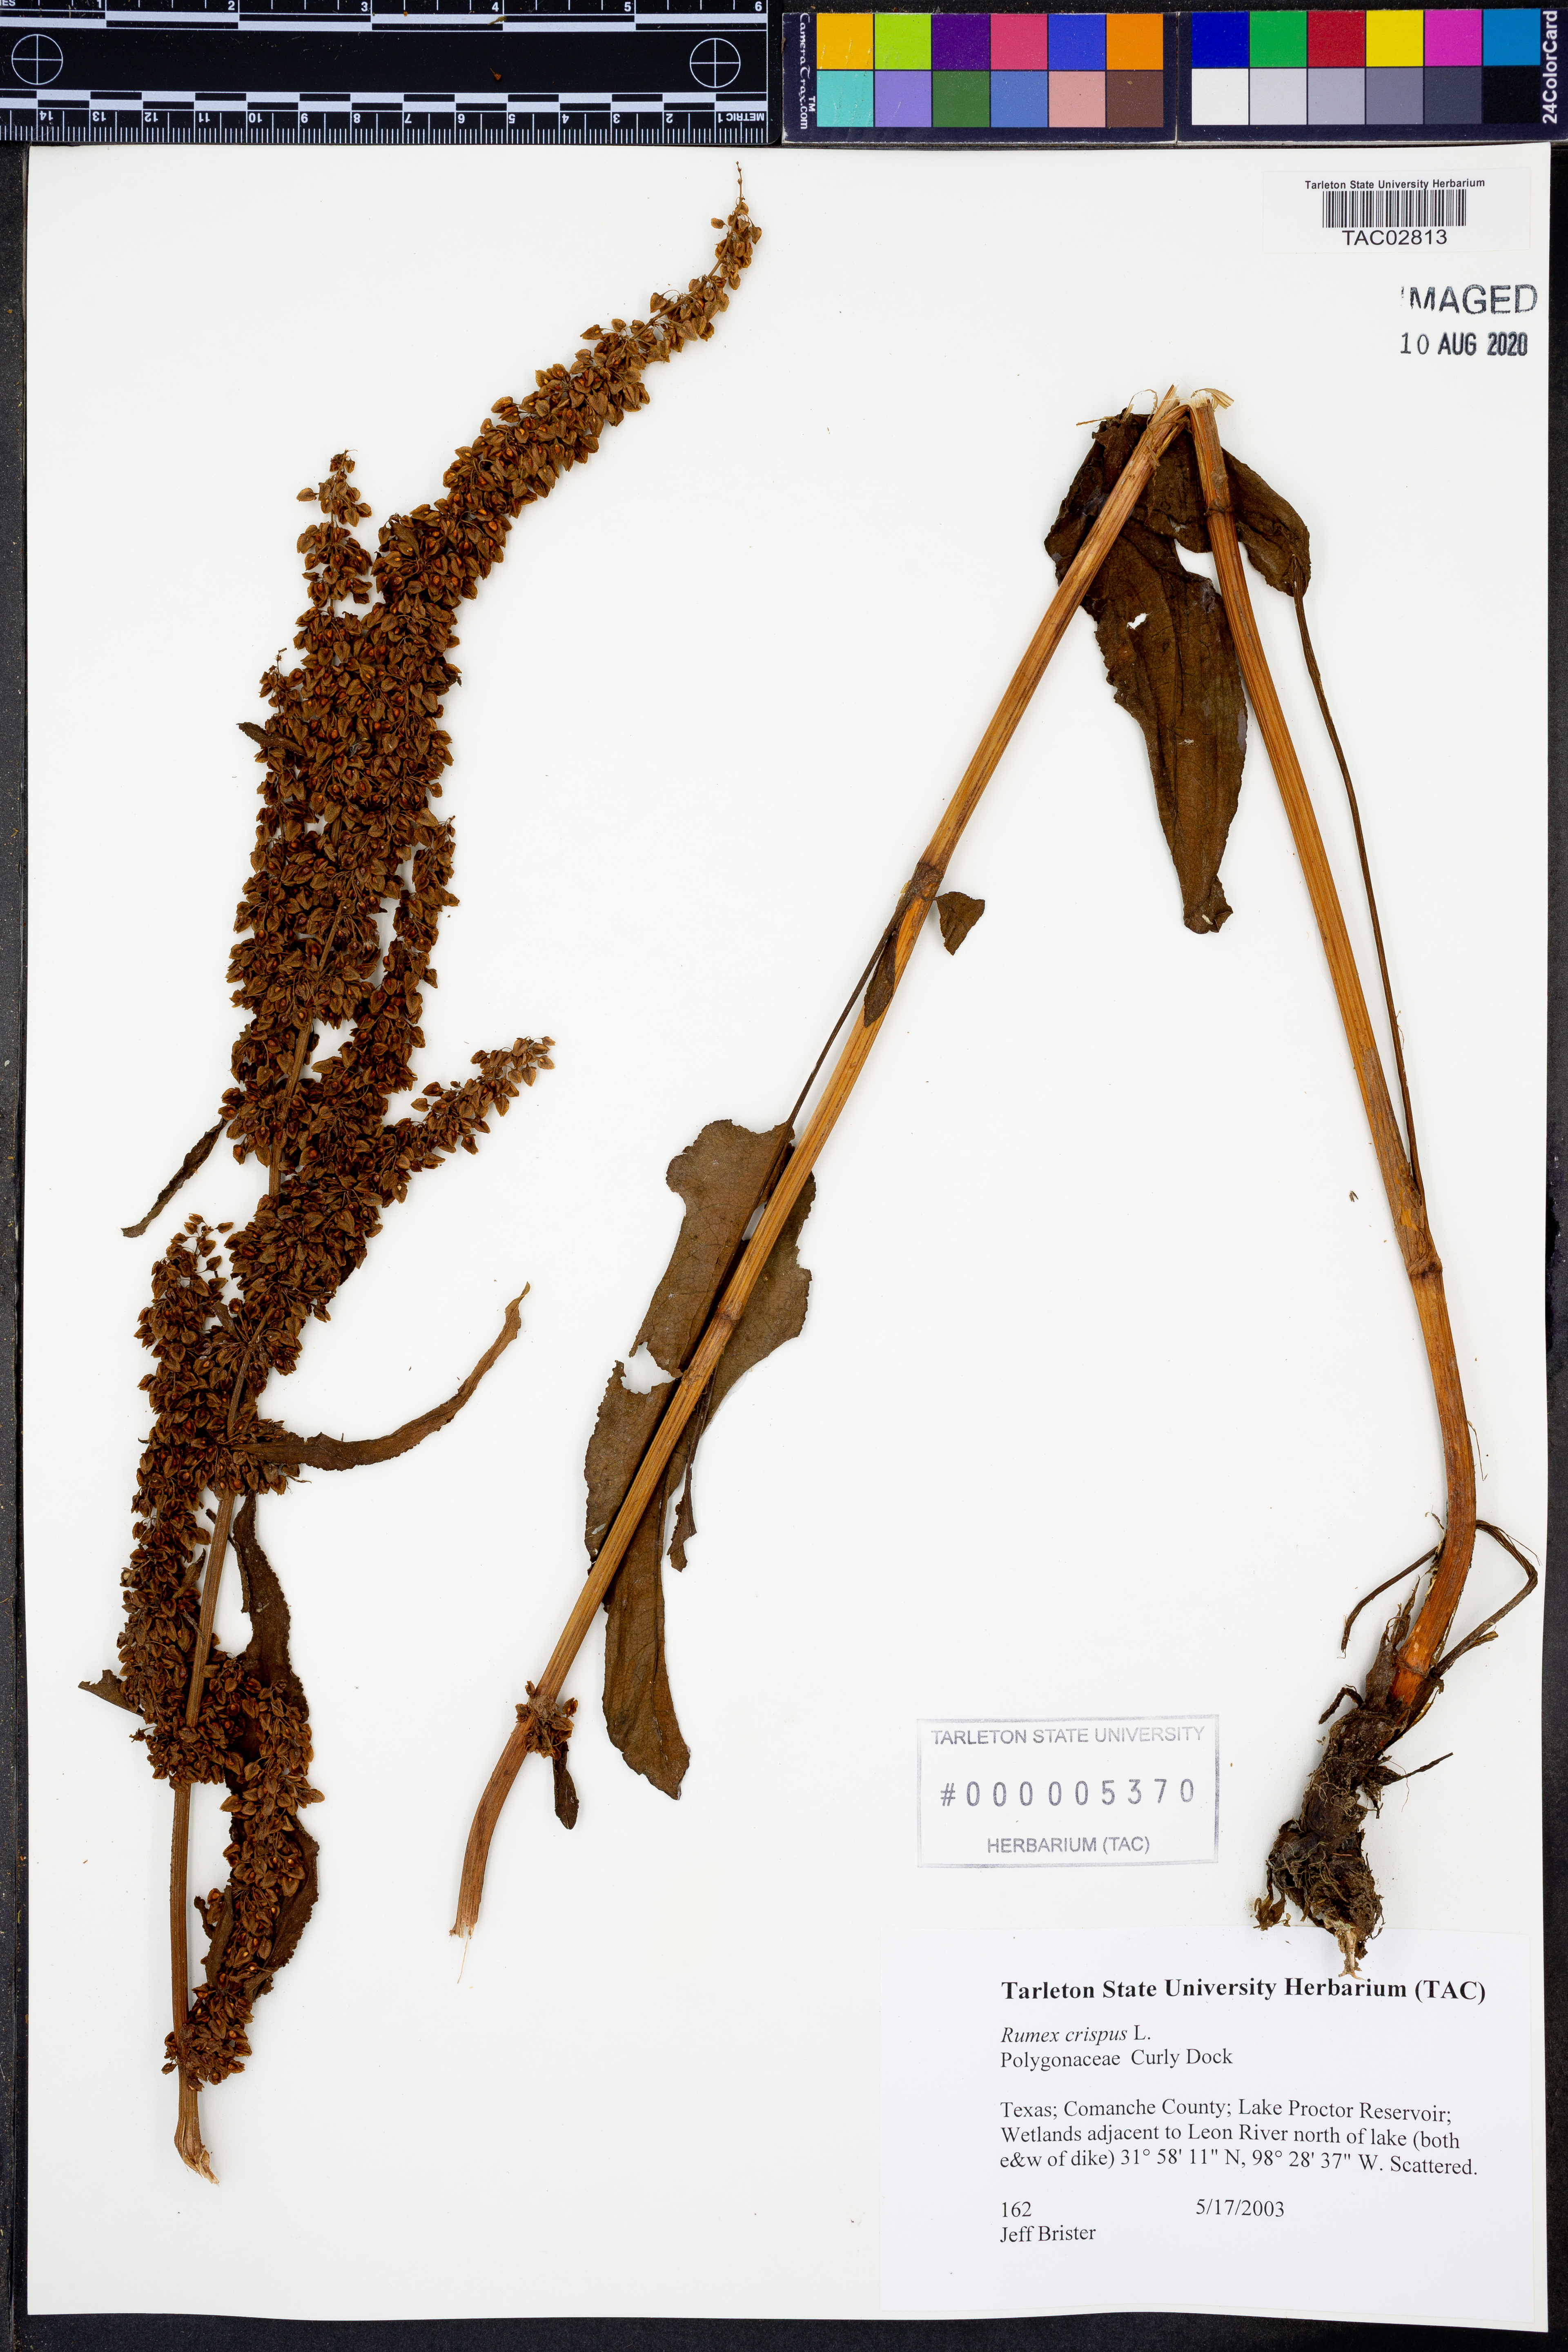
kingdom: Plantae
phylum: Tracheophyta
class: Magnoliopsida
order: Caryophyllales
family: Polygonaceae
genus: Rumex
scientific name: Rumex crispus
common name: Curled dock
